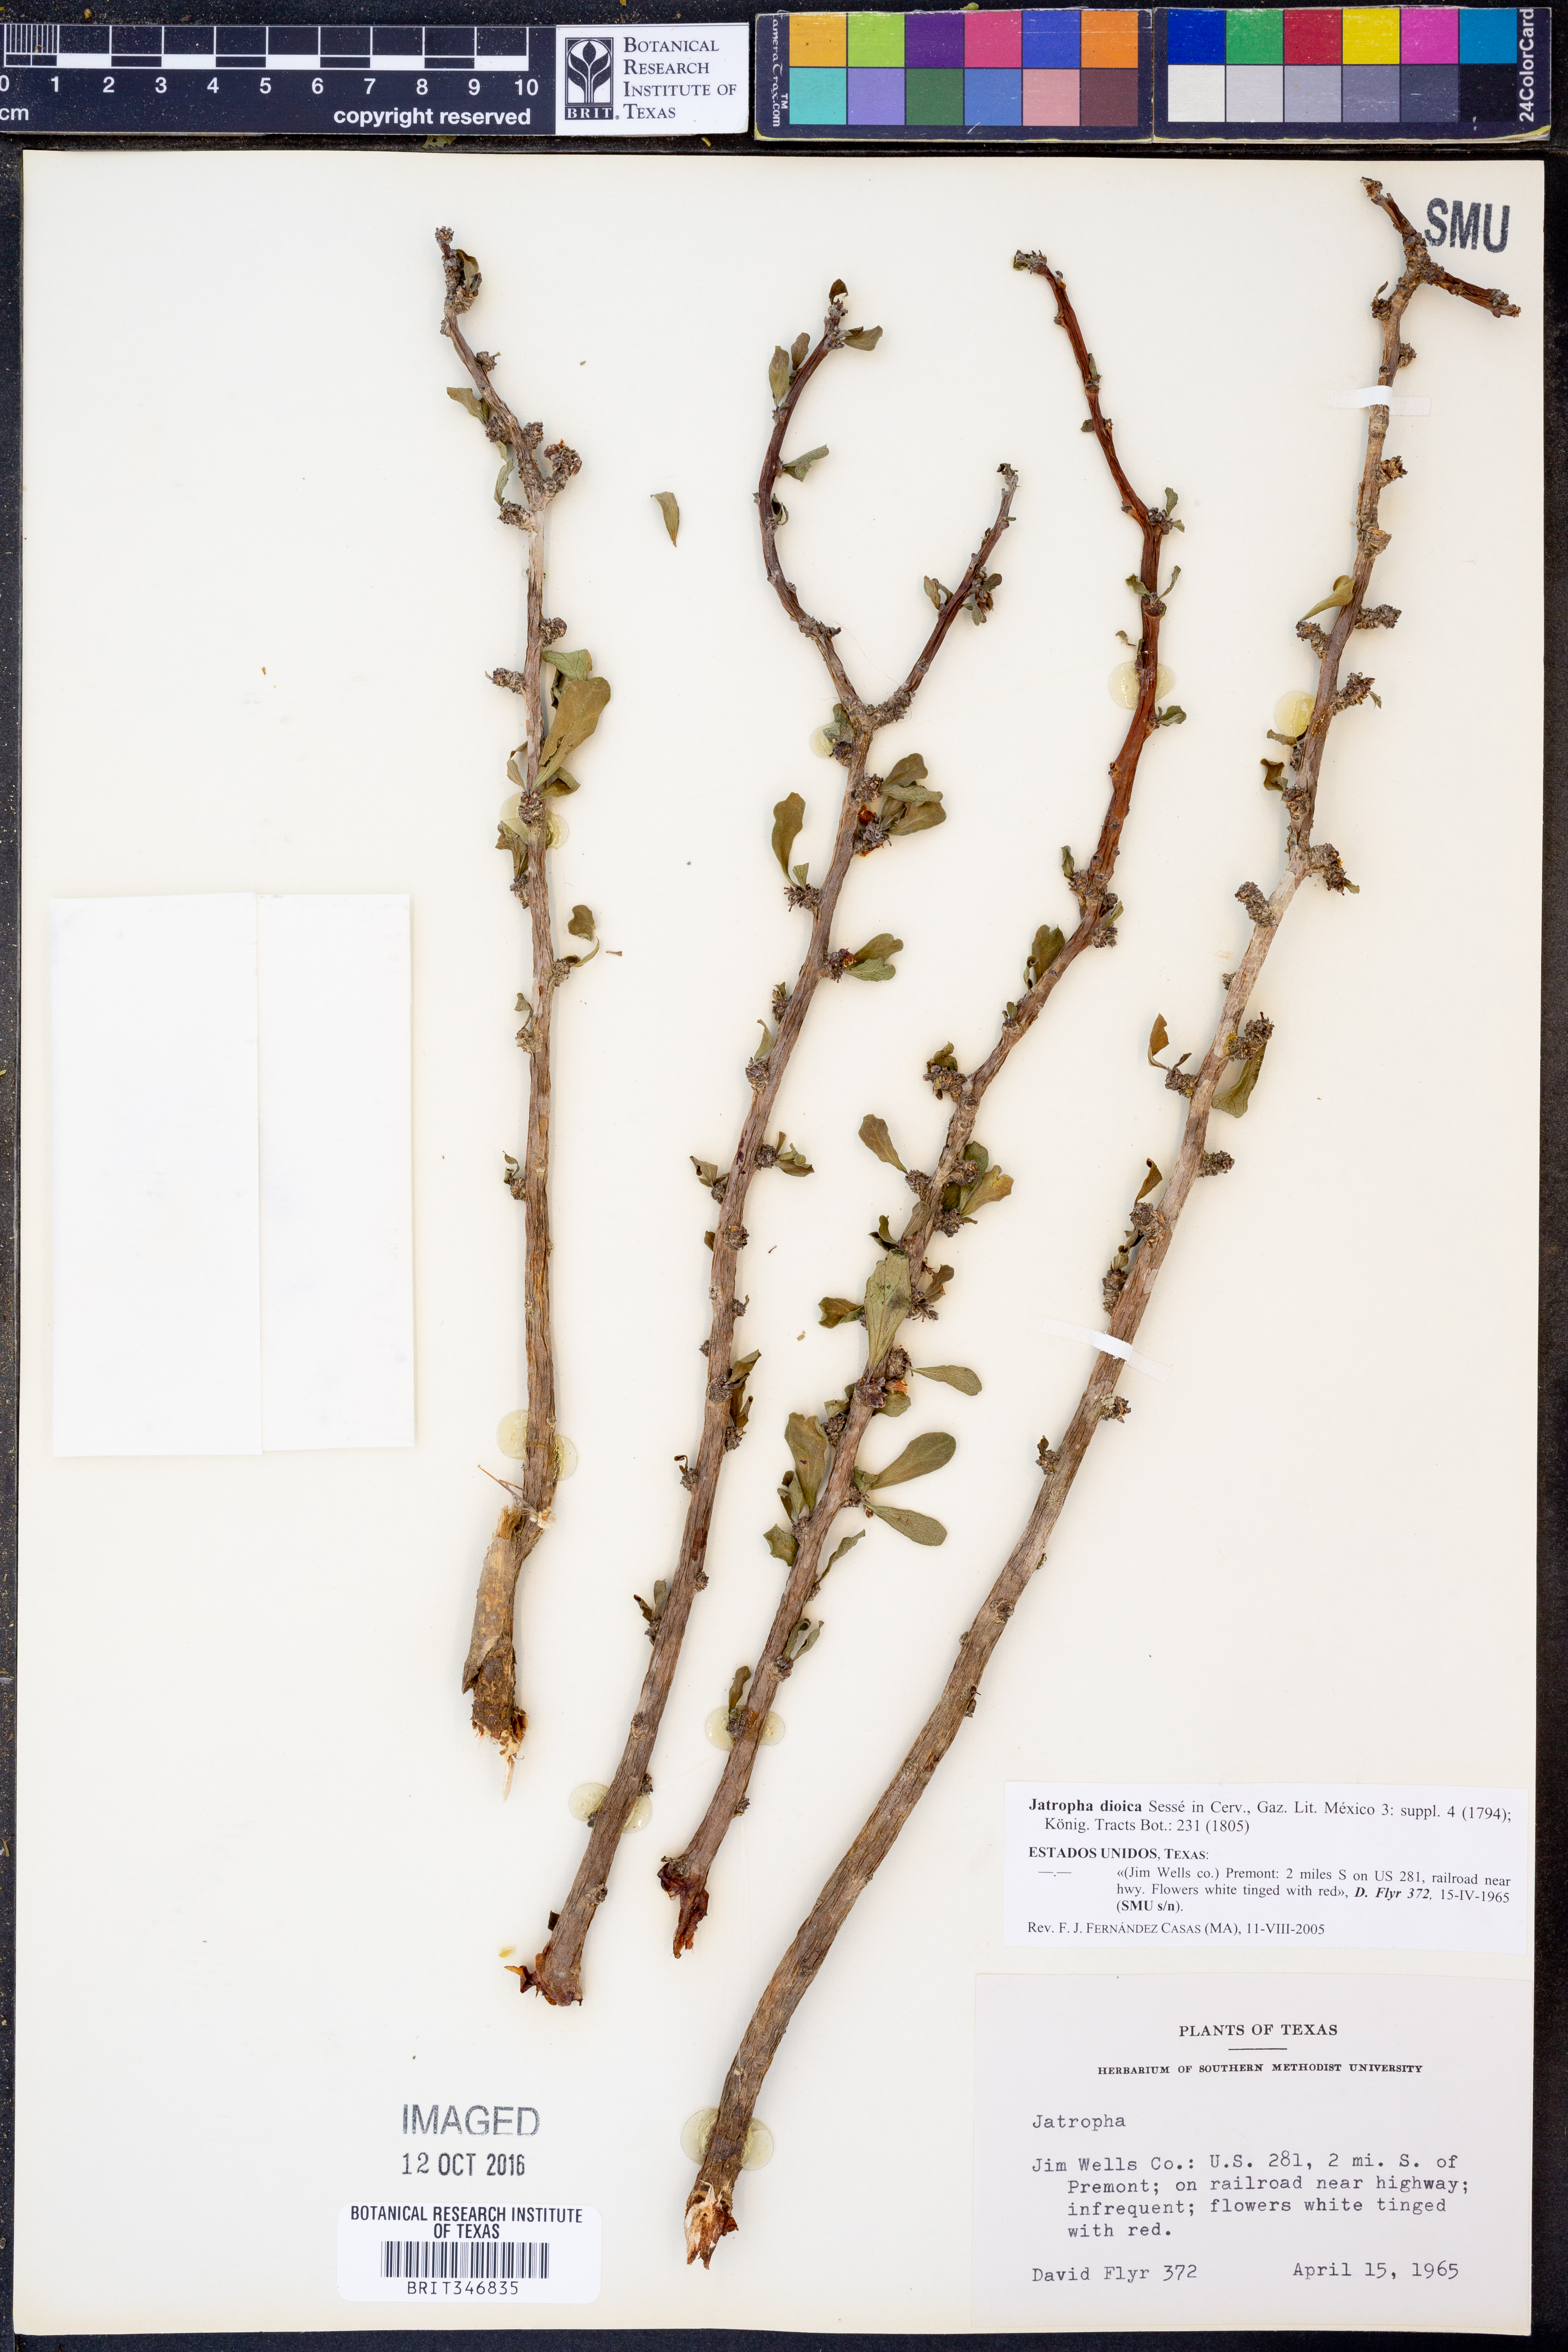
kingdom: Plantae
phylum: Tracheophyta
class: Magnoliopsida
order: Malpighiales
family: Euphorbiaceae
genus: Jatropha
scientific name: Jatropha dioica
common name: Leatherstem
